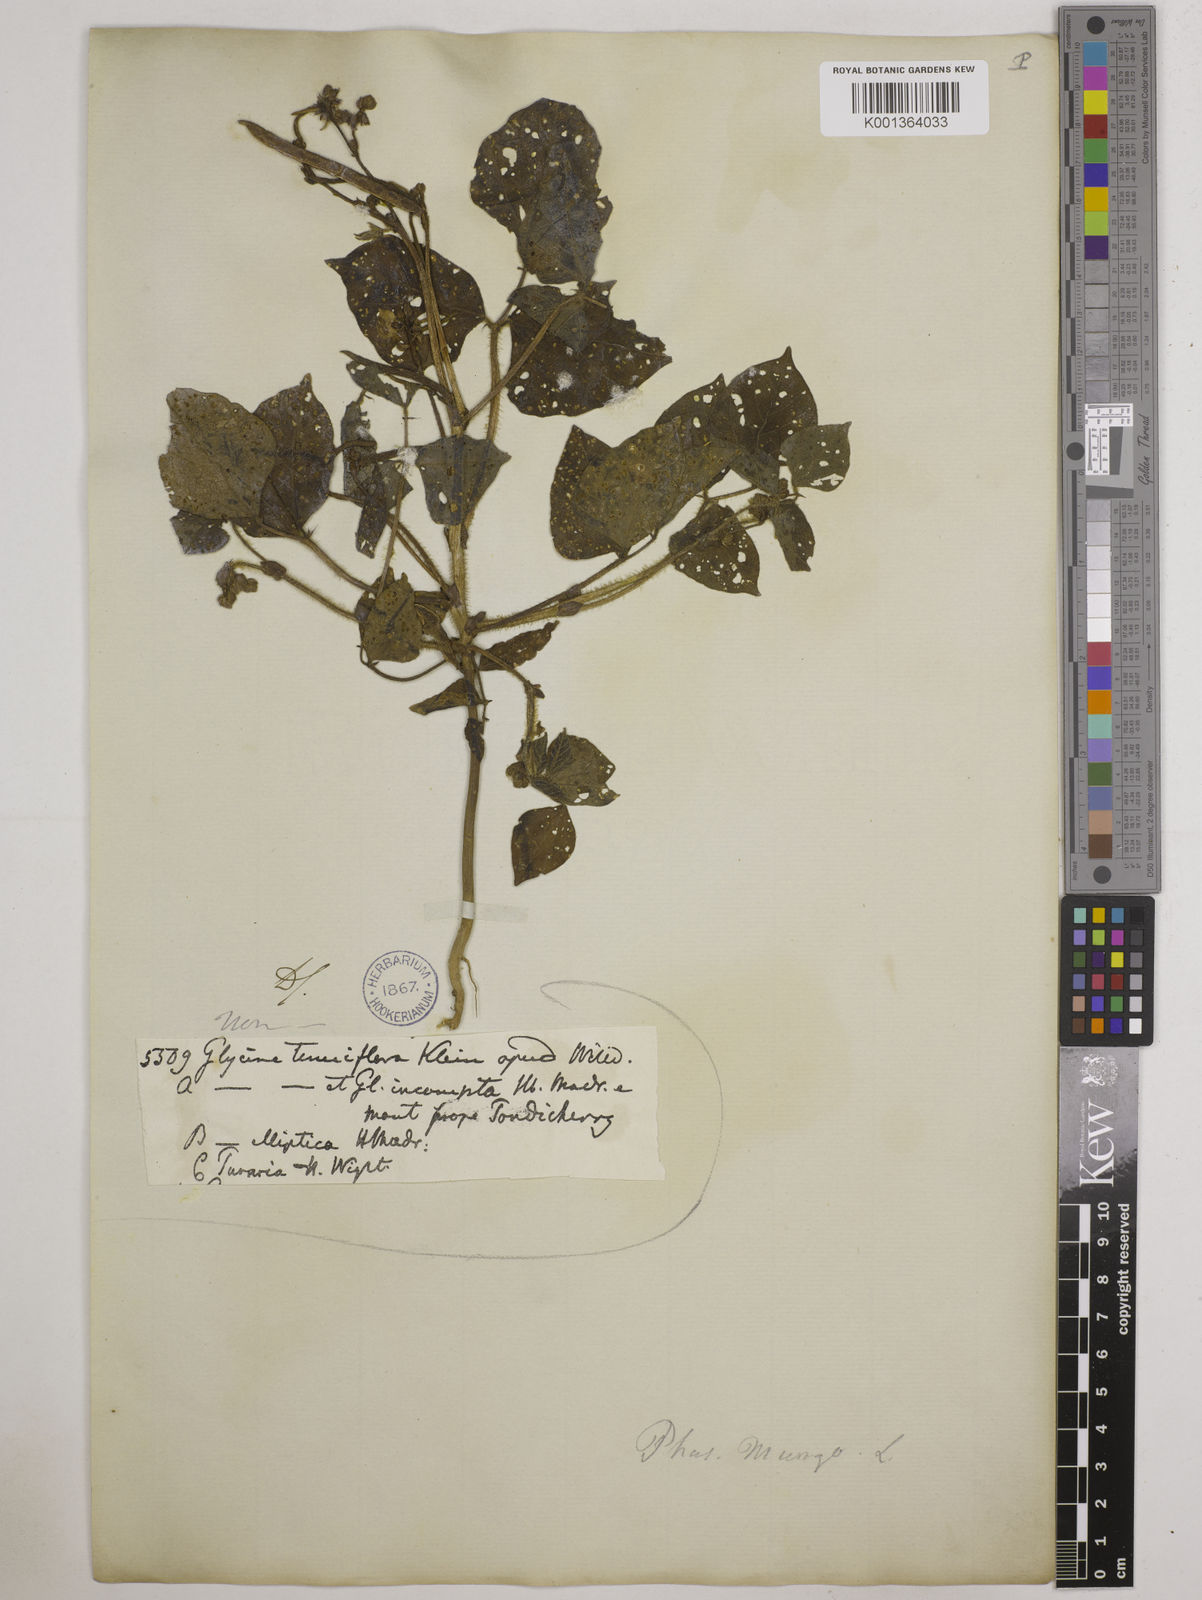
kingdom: Plantae
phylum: Tracheophyta
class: Magnoliopsida
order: Fabales
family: Fabaceae
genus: Vigna
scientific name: Vigna radiata
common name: Mung-bean
